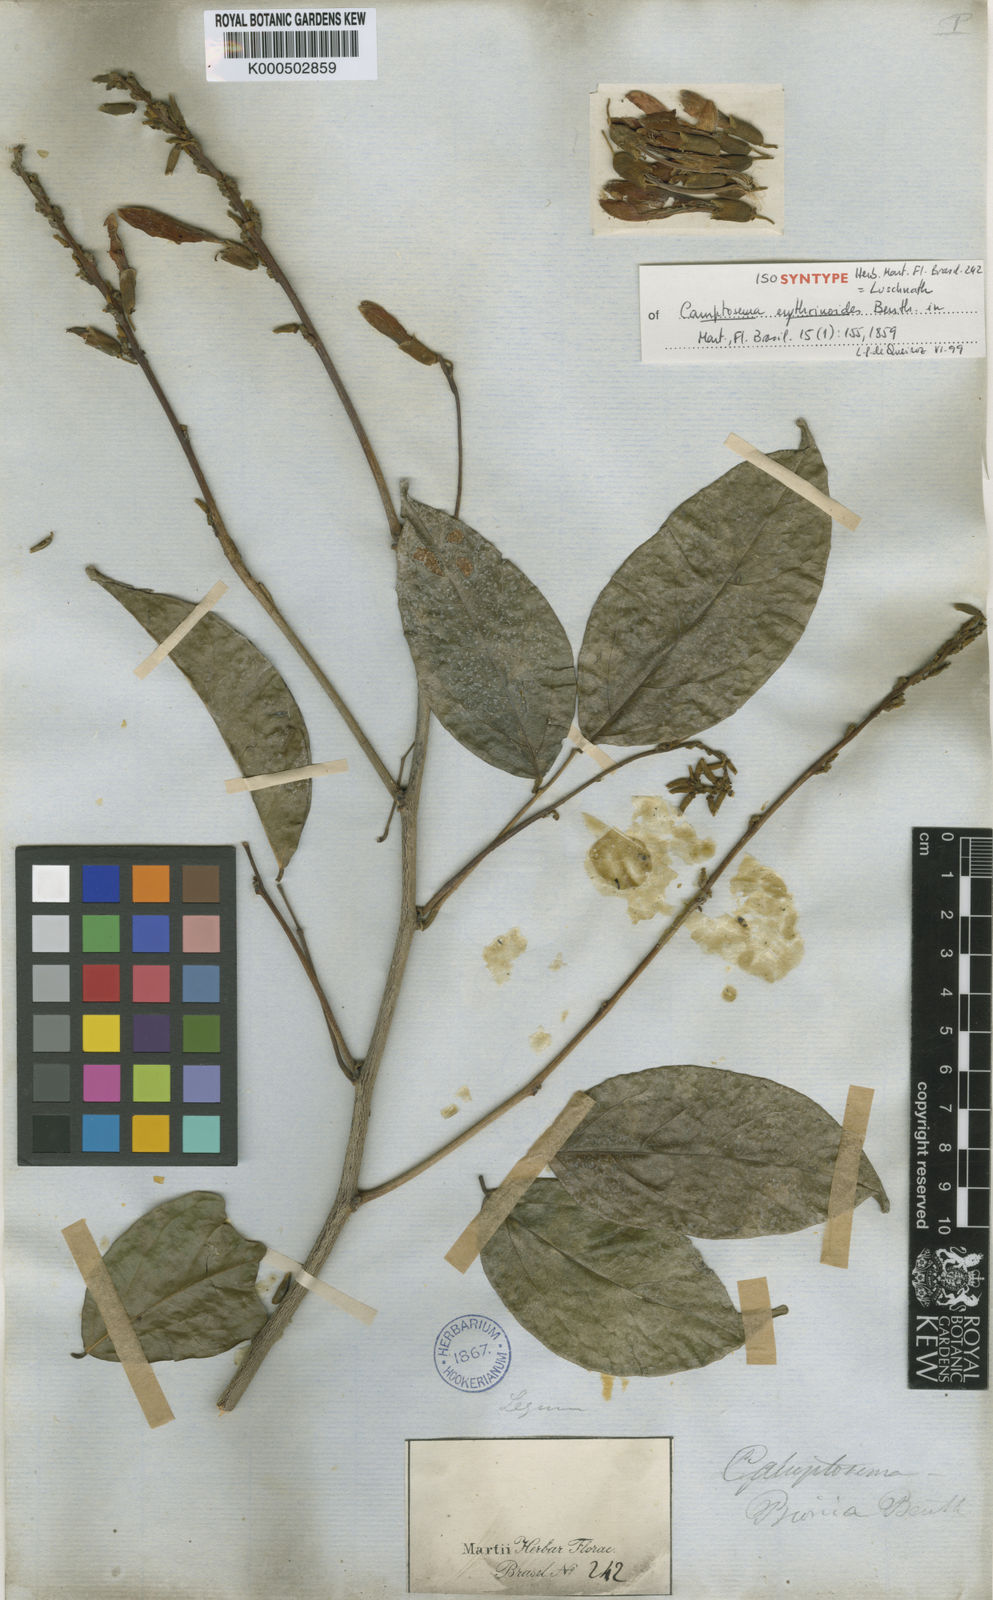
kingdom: Plantae
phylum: Tracheophyta
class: Magnoliopsida
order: Fabales
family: Fabaceae
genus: Cratylia
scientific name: Cratylia isopetala
